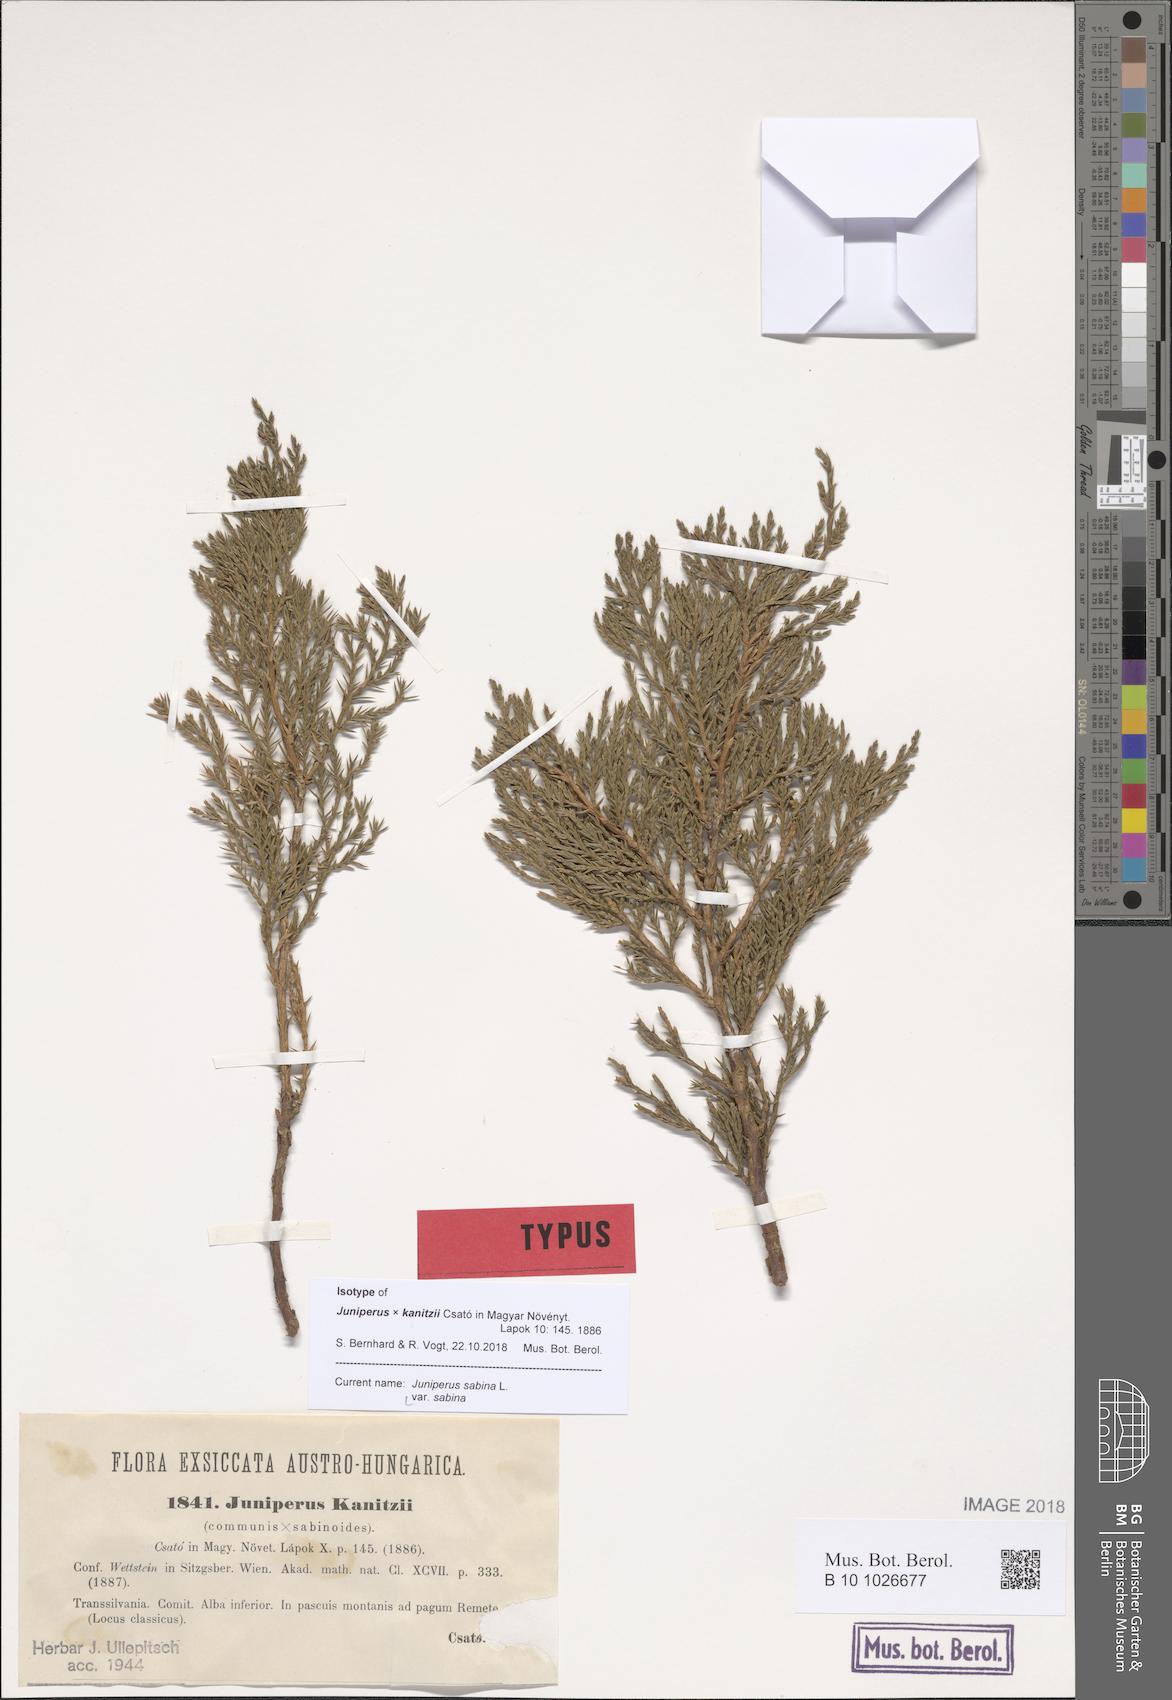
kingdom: Plantae
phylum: Tracheophyta
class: Pinopsida
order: Pinales
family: Cupressaceae
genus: Juniperus
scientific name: Juniperus sabina
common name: Savin
